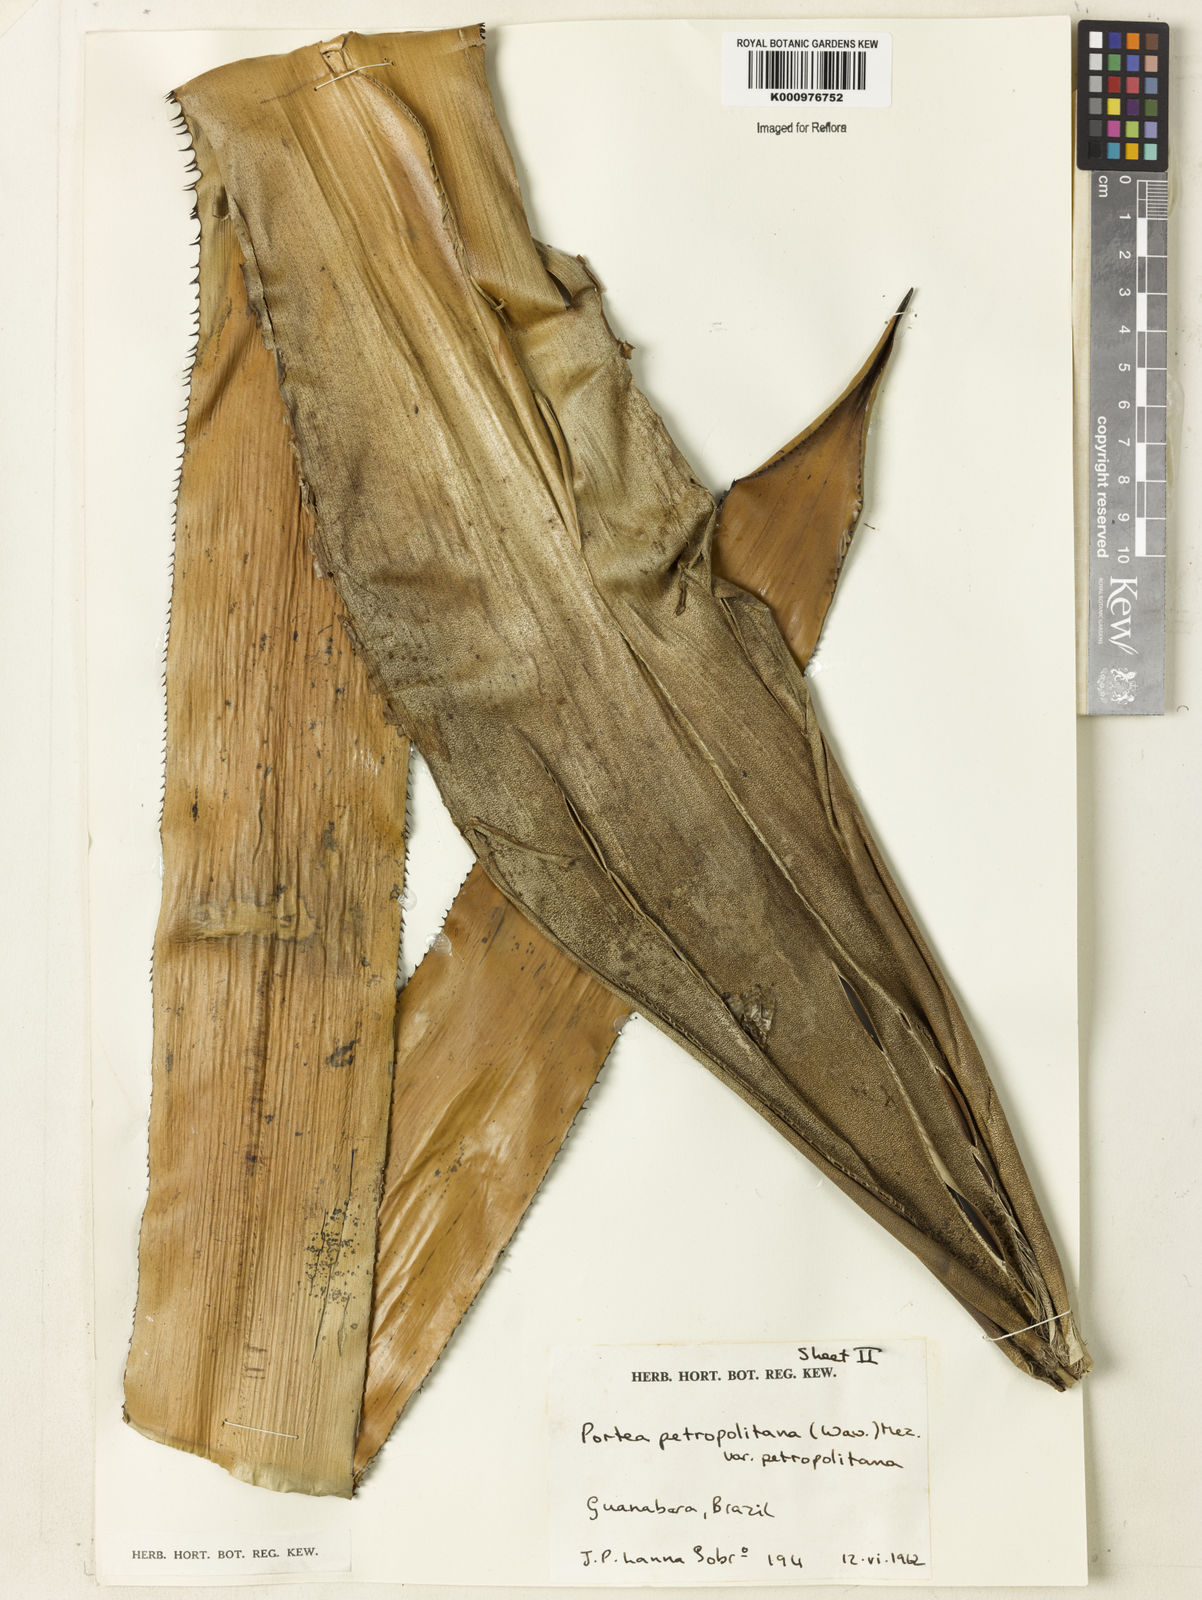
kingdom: Plantae
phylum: Tracheophyta
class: Liliopsida
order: Poales
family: Bromeliaceae
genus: Portea
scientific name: Portea petropolitana
